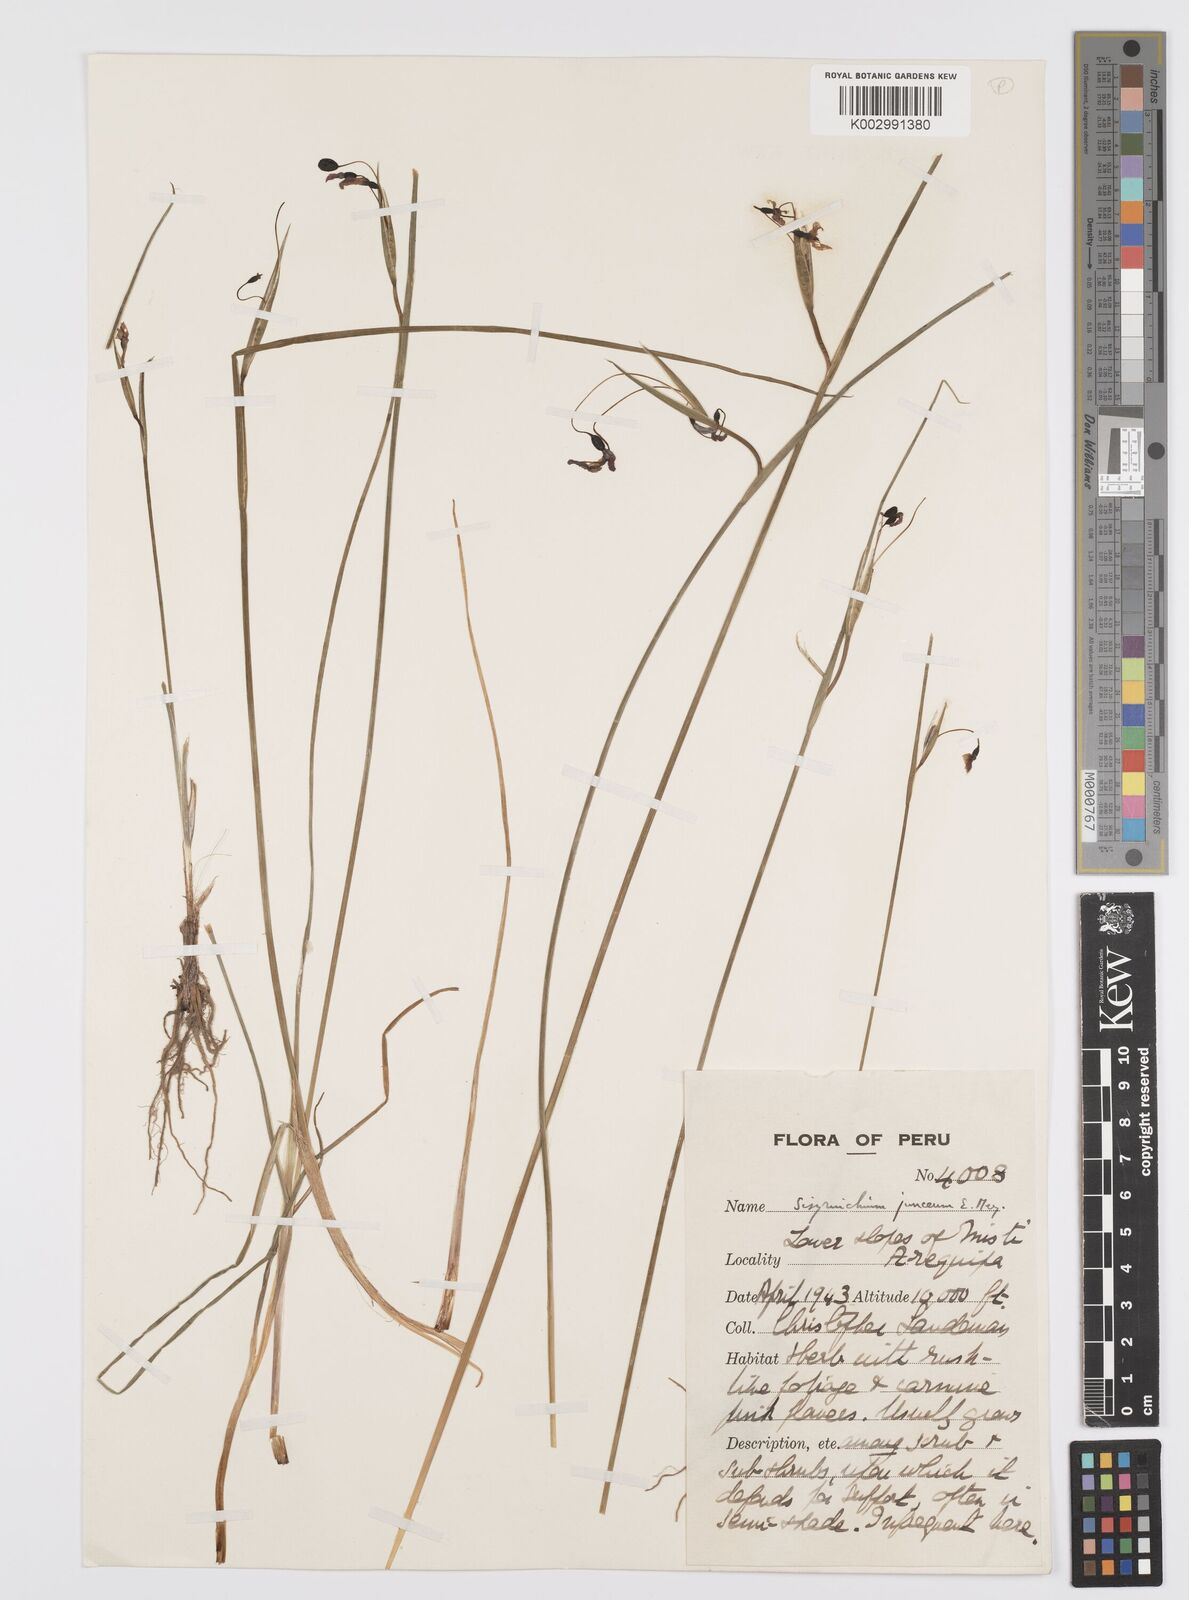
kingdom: Plantae
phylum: Tracheophyta
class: Liliopsida
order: Asparagales
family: Iridaceae
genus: Olsynium
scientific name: Olsynium
